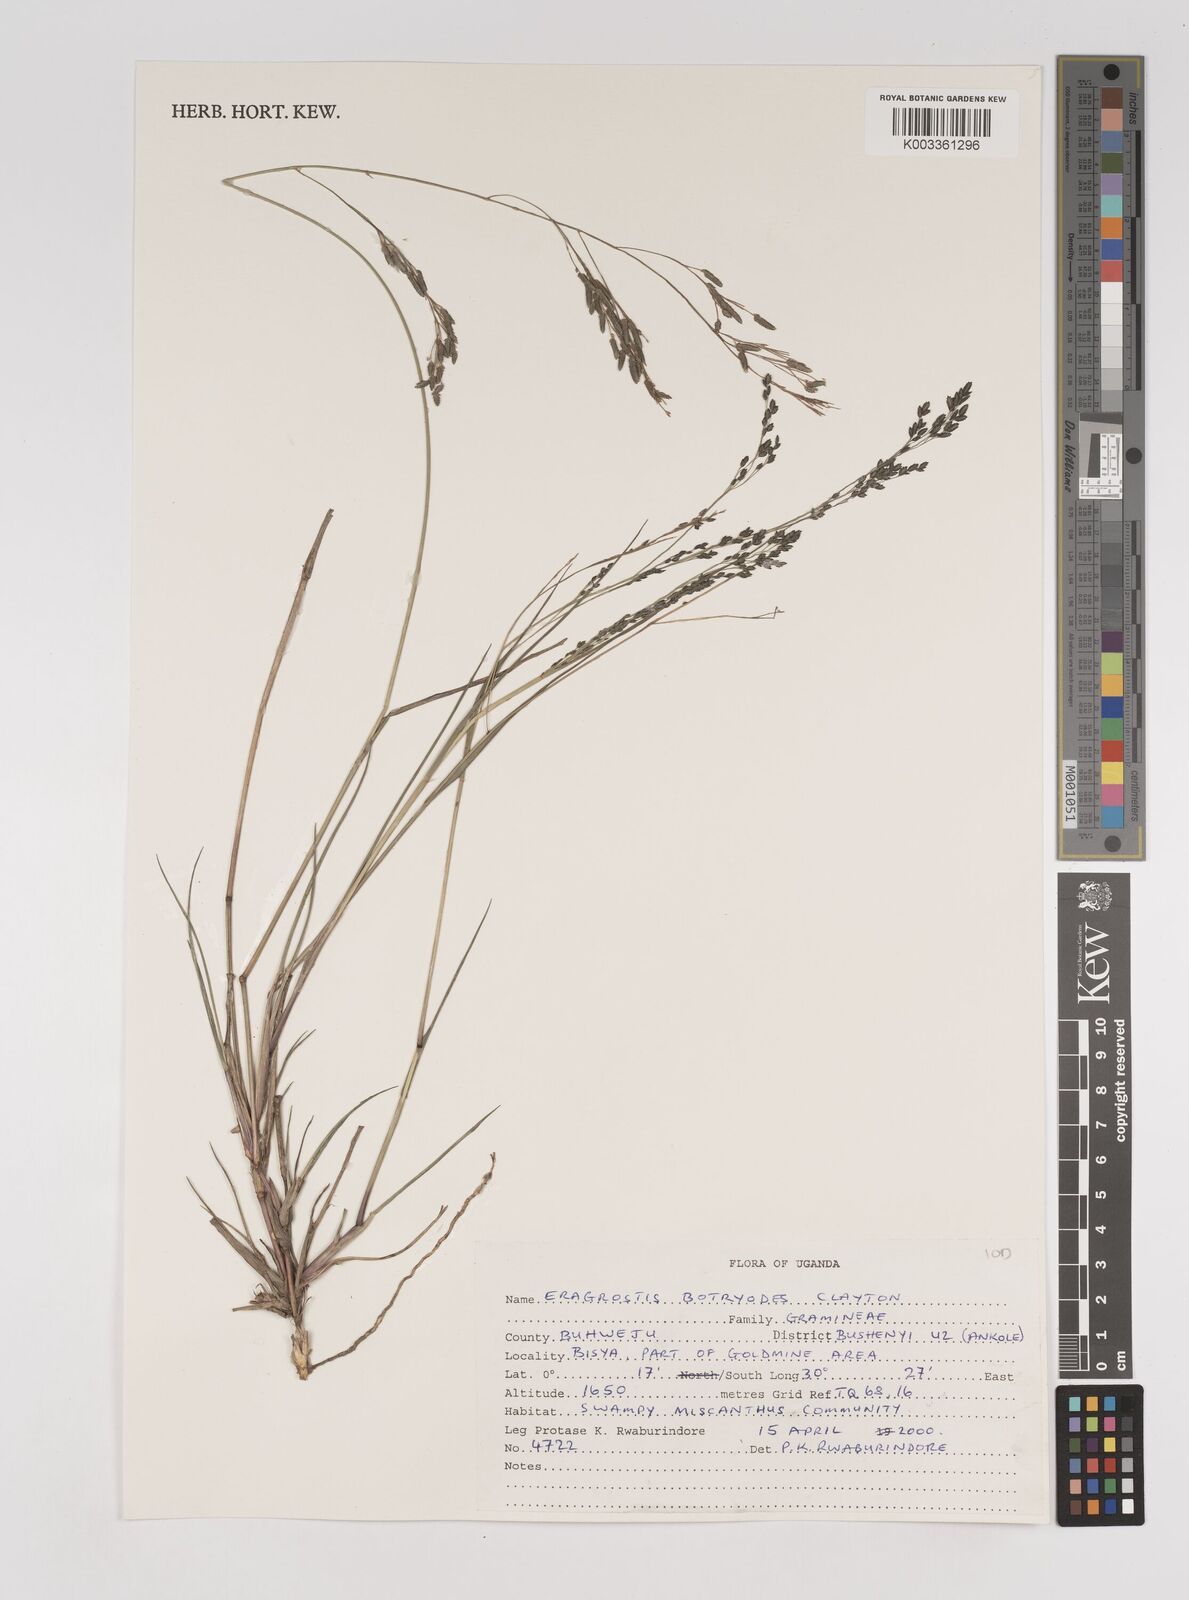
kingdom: Plantae
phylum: Tracheophyta
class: Liliopsida
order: Poales
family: Poaceae
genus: Eragrostis
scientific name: Eragrostis botryodes
